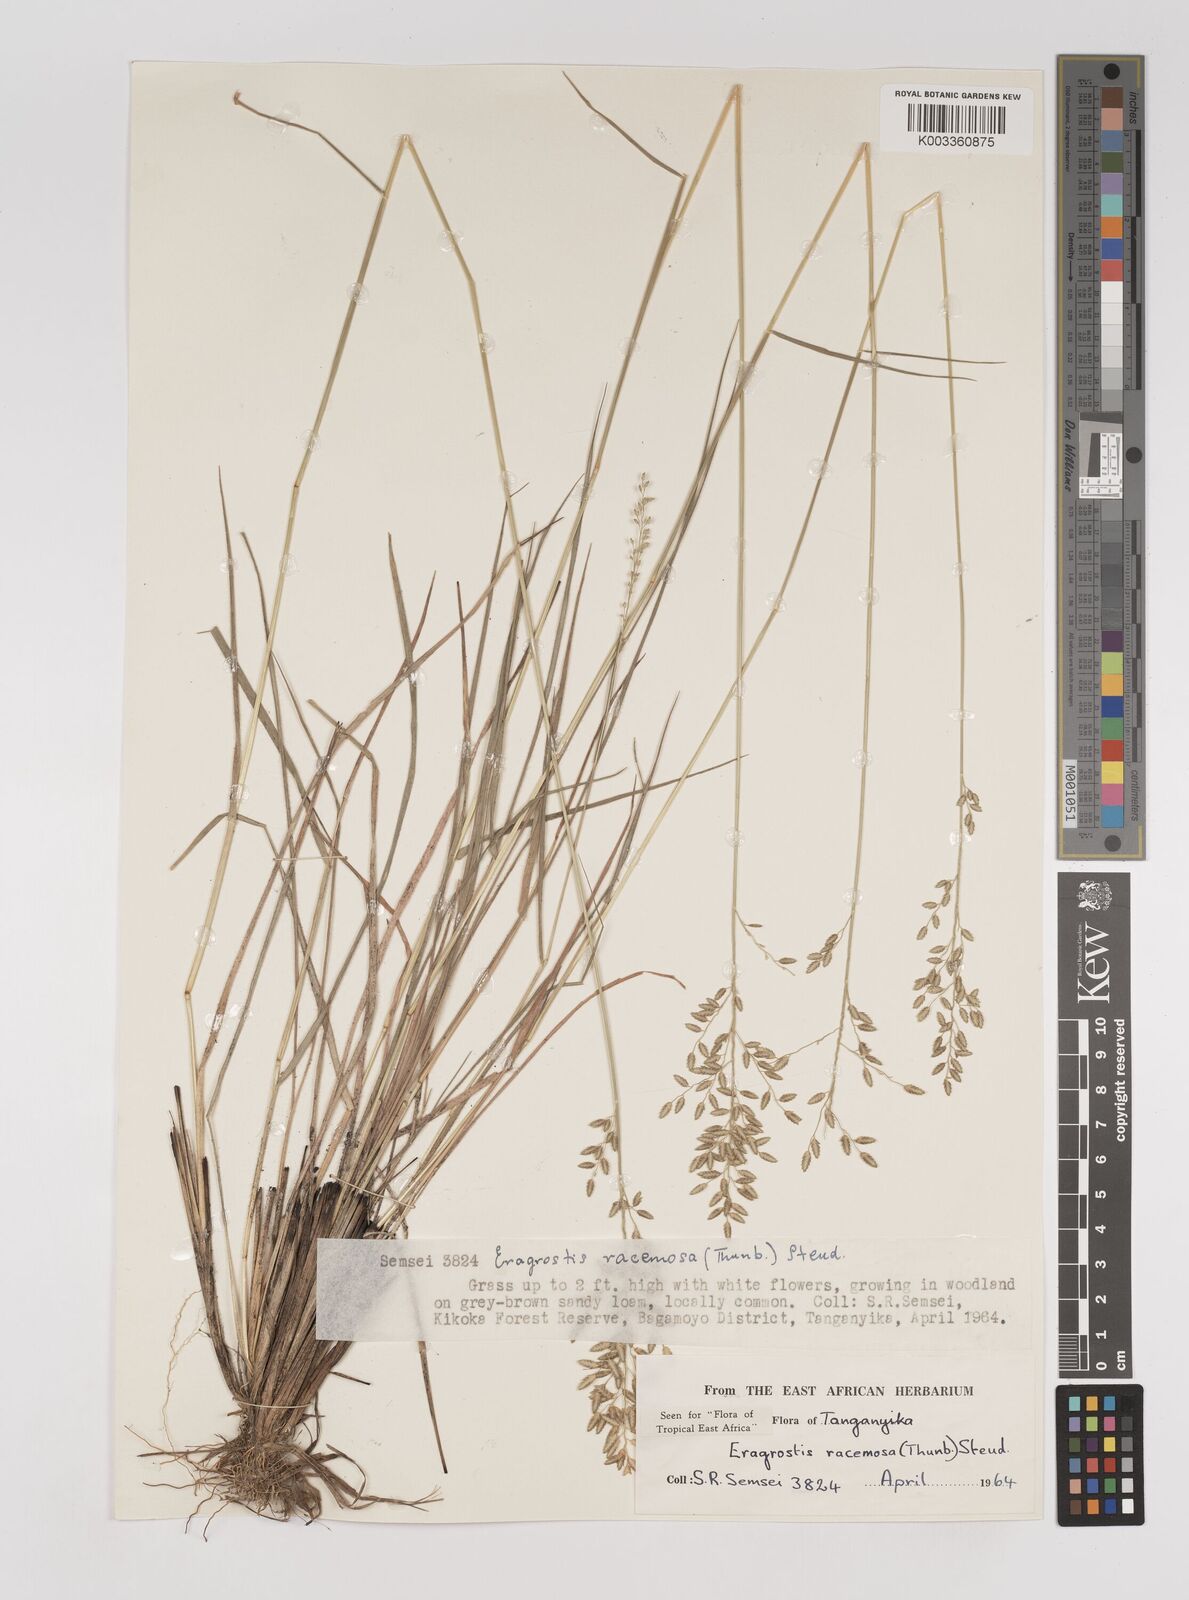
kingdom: Plantae
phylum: Tracheophyta
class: Liliopsida
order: Poales
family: Poaceae
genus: Eragrostis
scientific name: Eragrostis racemosa
